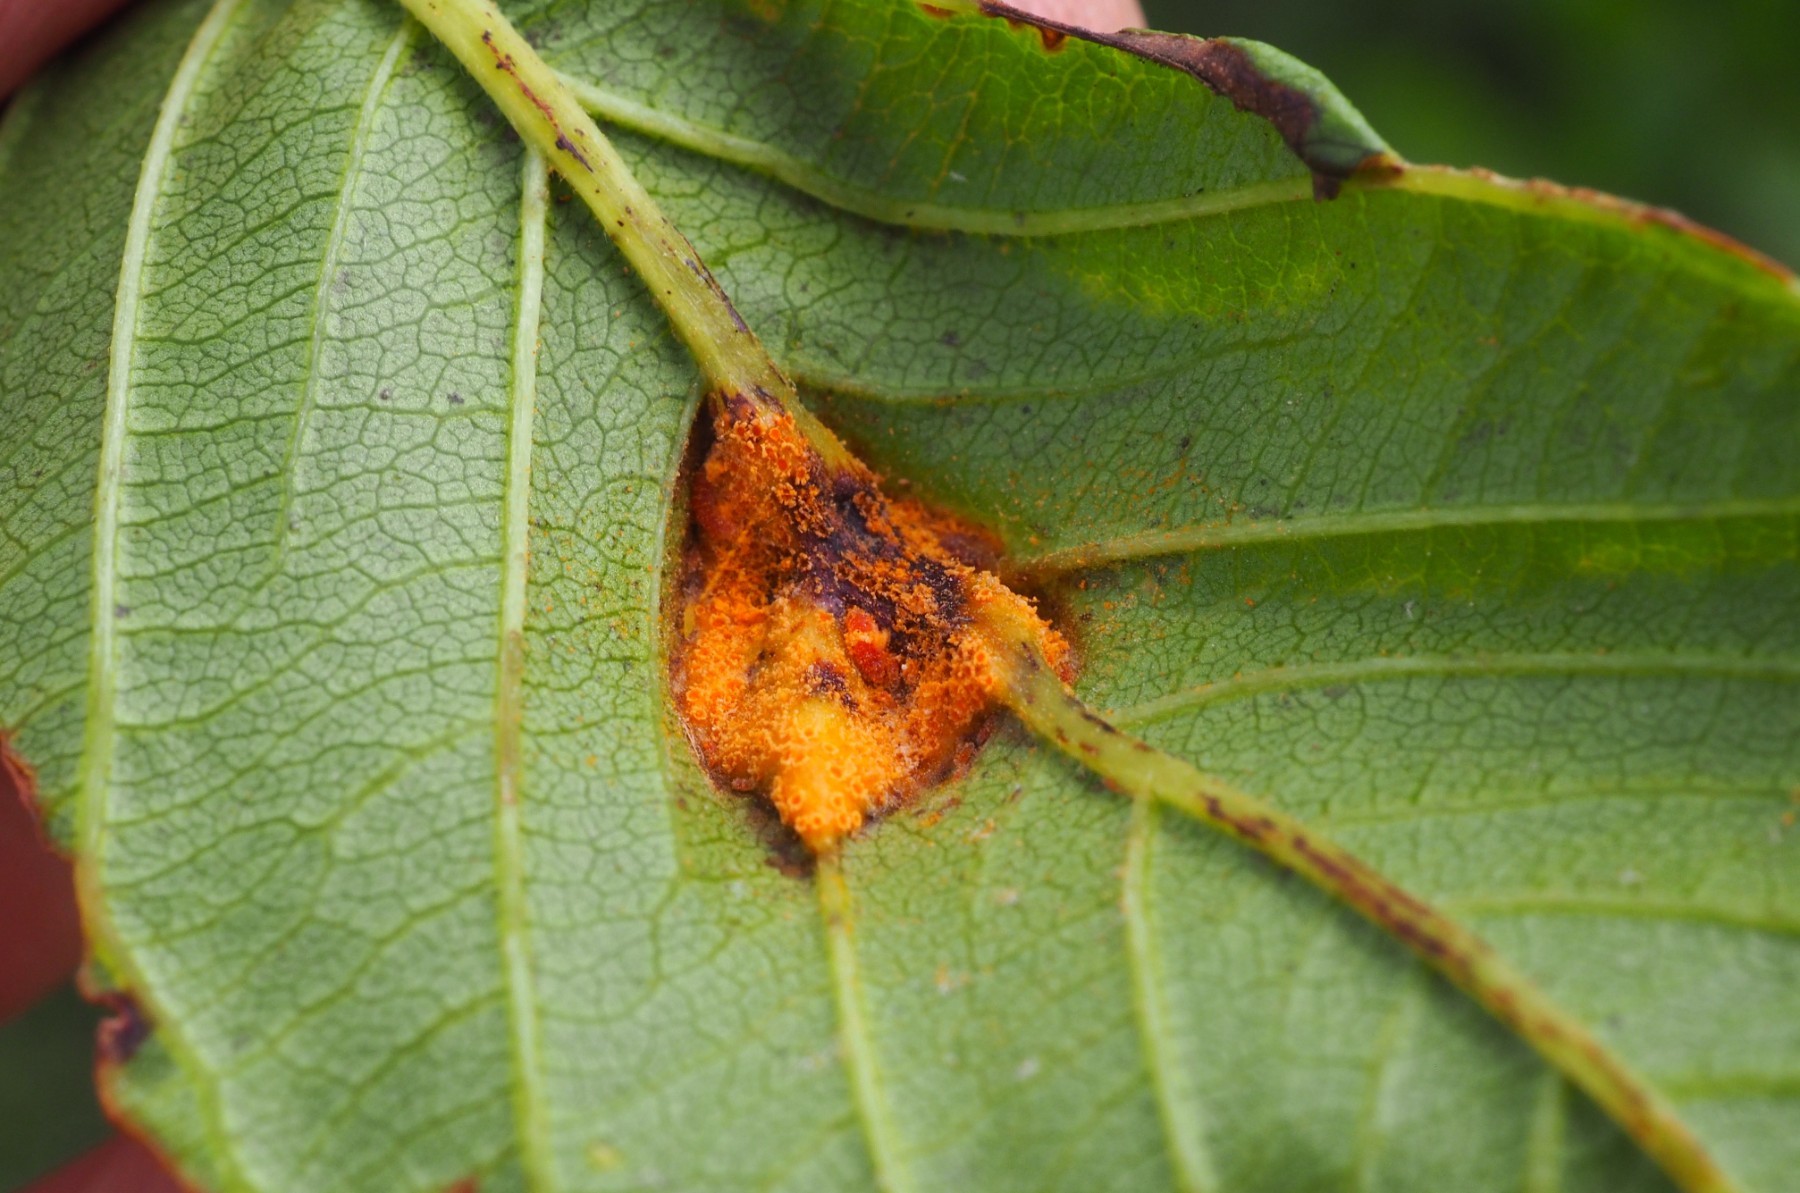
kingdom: Fungi
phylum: Basidiomycota
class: Pucciniomycetes
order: Pucciniales
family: Pucciniaceae
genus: Puccinia
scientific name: Puccinia coronata
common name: Crown rust
